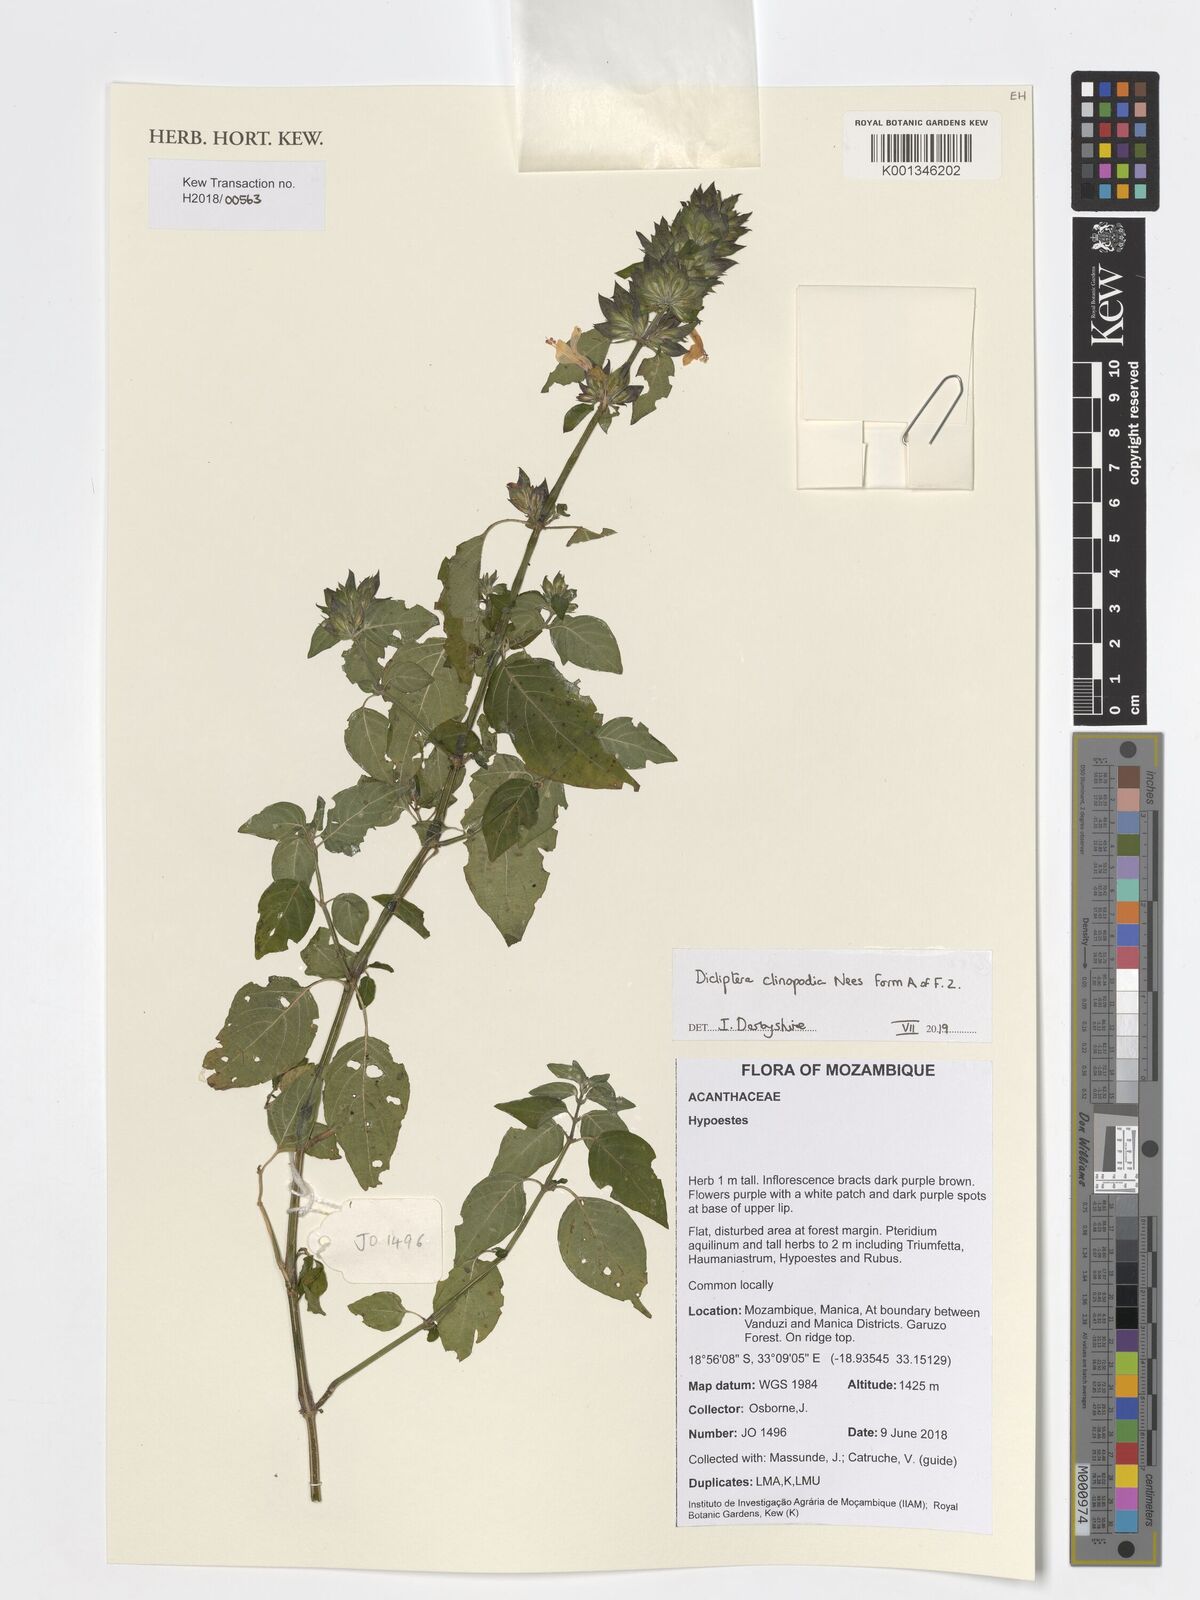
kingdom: Plantae
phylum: Tracheophyta
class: Magnoliopsida
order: Lamiales
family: Acanthaceae
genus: Dicliptera
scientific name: Dicliptera clinopodia
